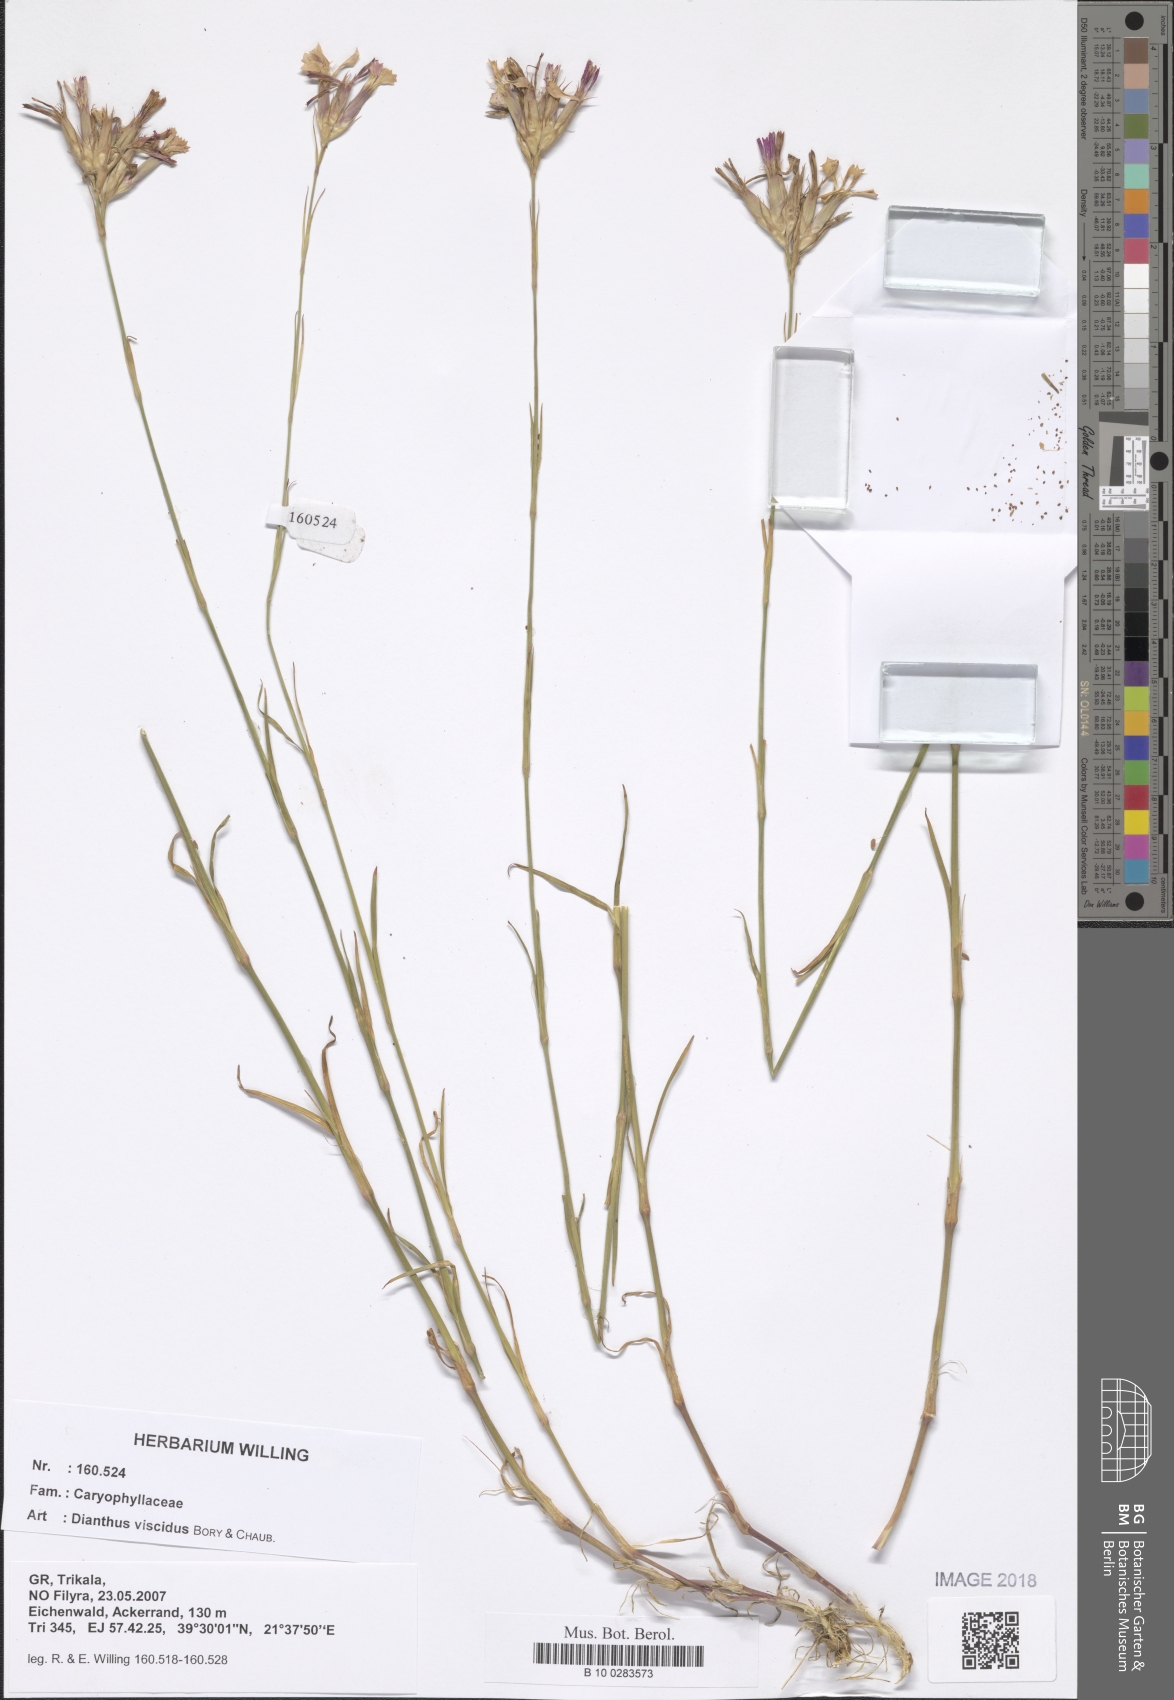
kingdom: Plantae
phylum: Tracheophyta
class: Magnoliopsida
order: Caryophyllales
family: Caryophyllaceae
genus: Dianthus
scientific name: Dianthus viscidus
